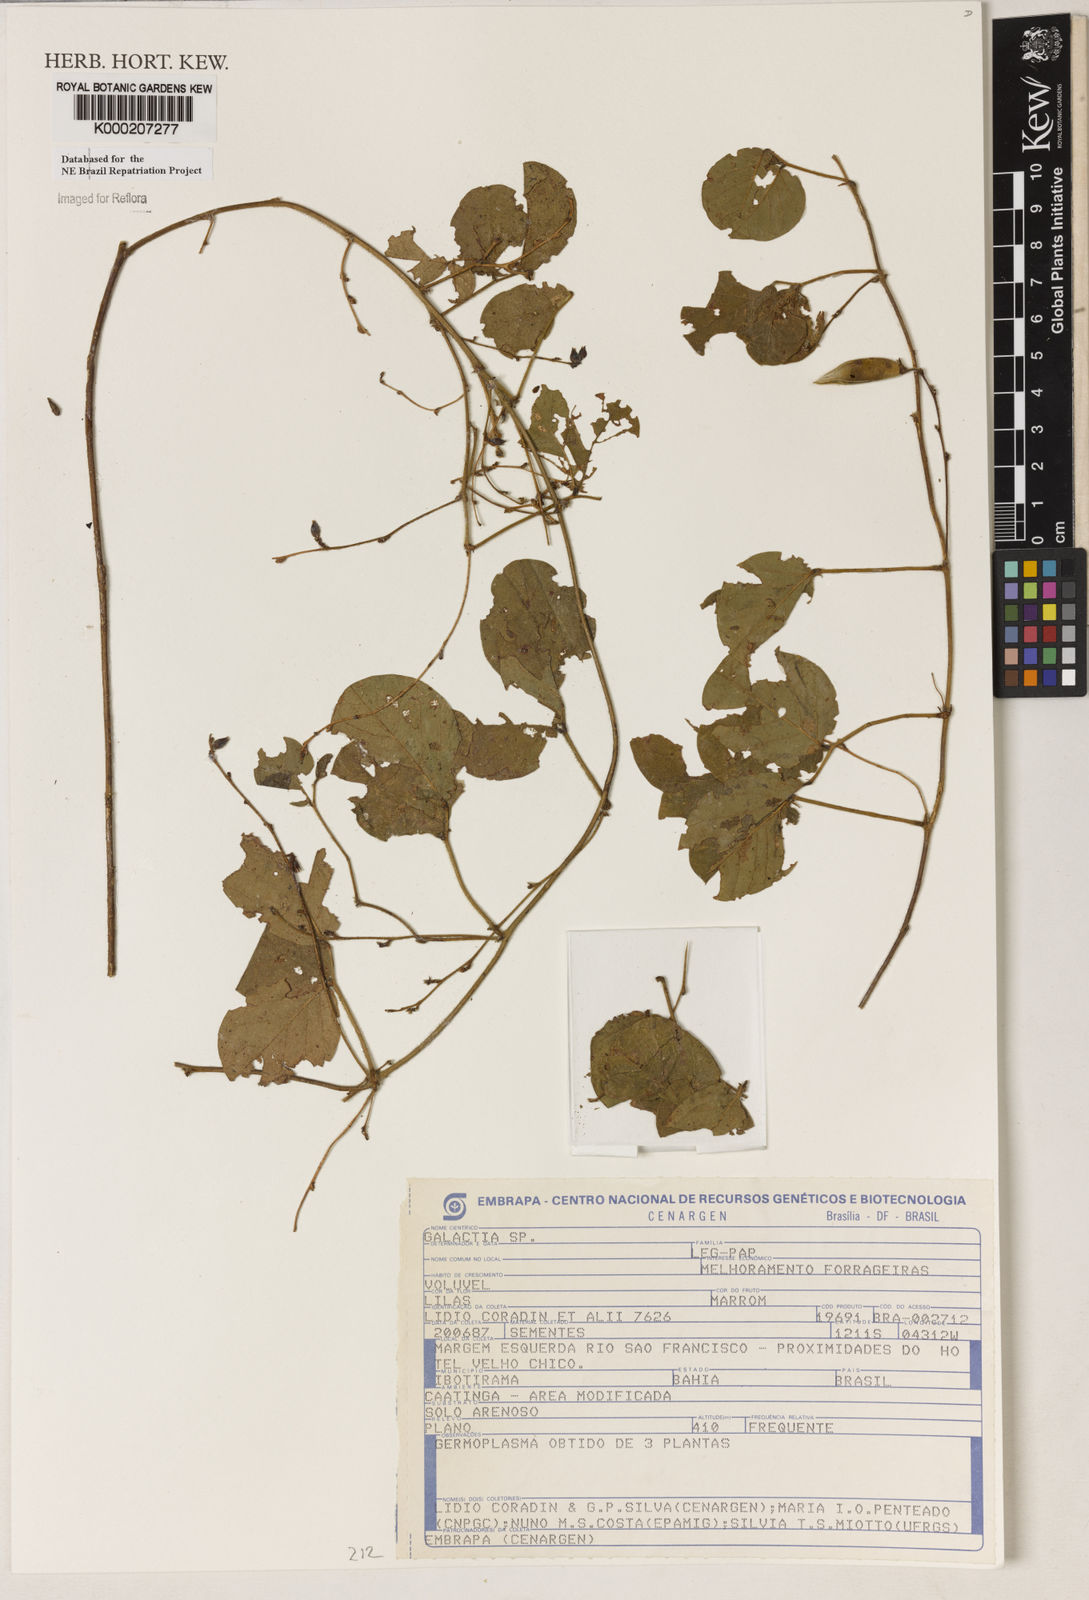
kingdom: Plantae
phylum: Tracheophyta
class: Magnoliopsida
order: Fabales
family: Fabaceae
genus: Galactia
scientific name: Galactia
